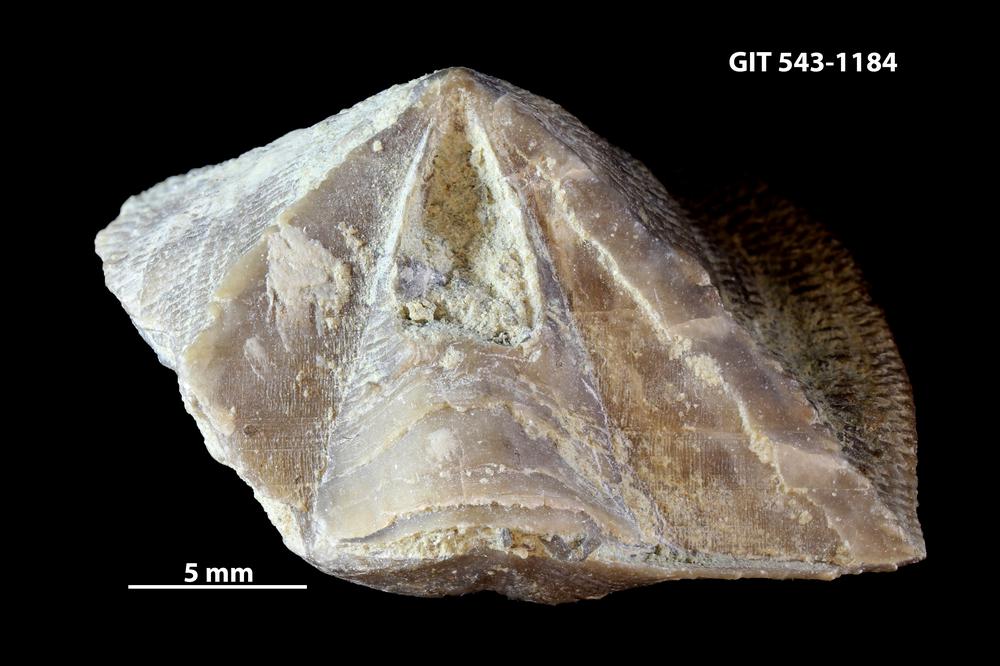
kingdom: Animalia
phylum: Brachiopoda
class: Rhynchonellata
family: Clitambonitidae
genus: Ilmarinia
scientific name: Ilmarinia dimorpha
